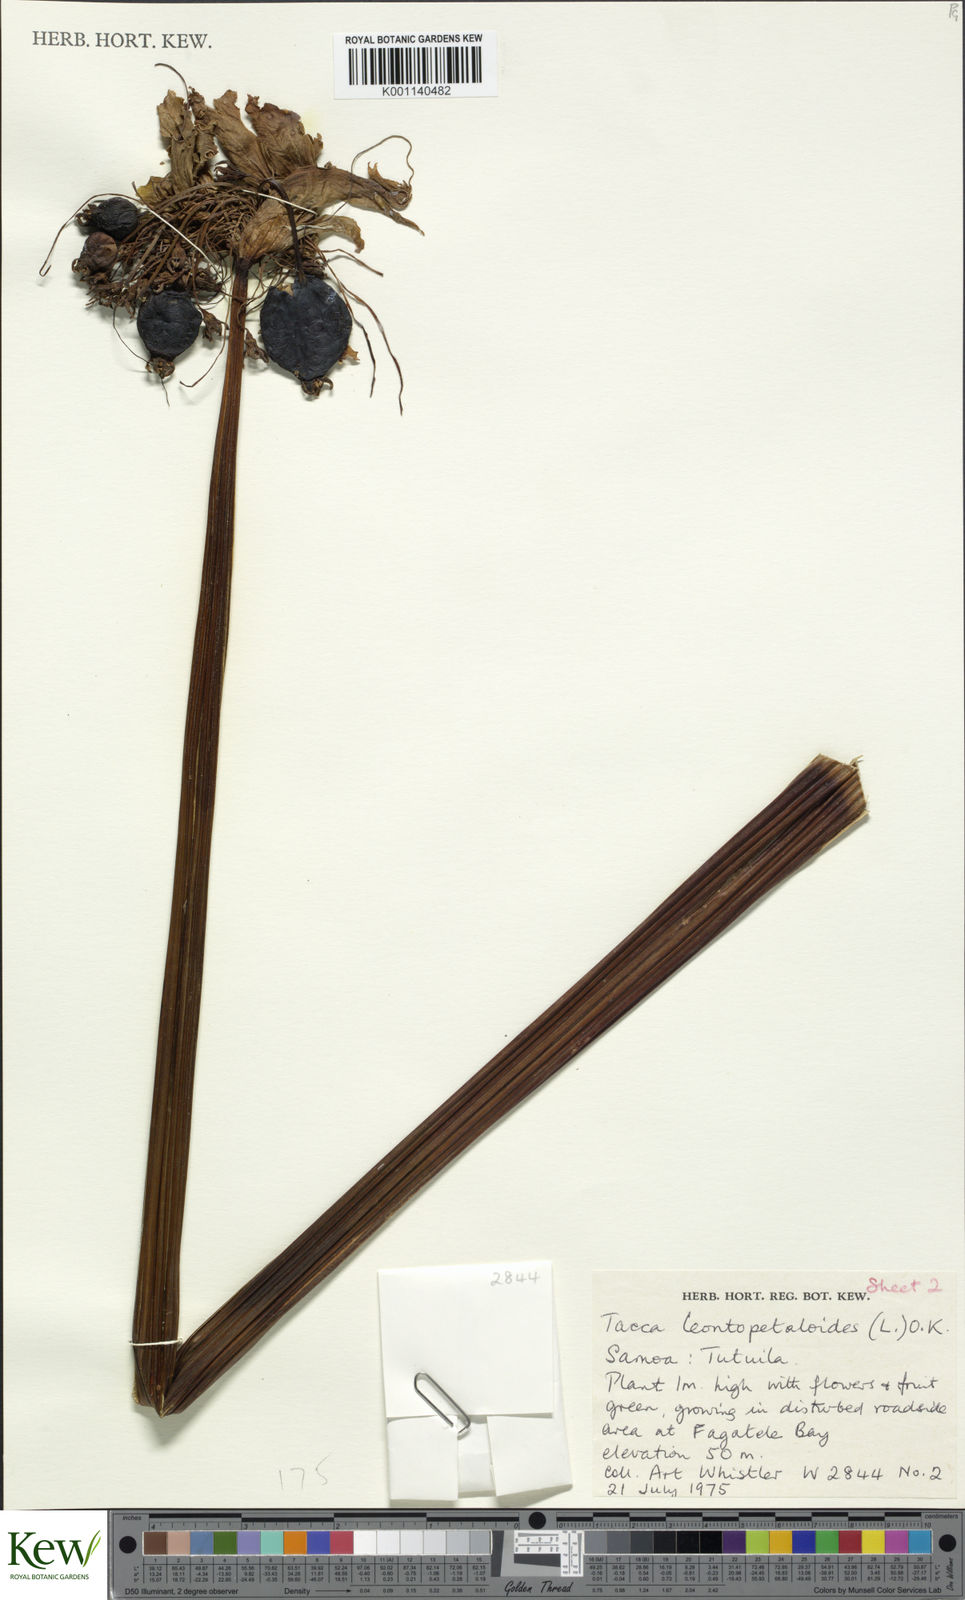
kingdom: Plantae
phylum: Tracheophyta
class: Liliopsida
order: Dioscoreales
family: Dioscoreaceae
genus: Tacca
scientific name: Tacca leontopetaloides
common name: Arrowroot
